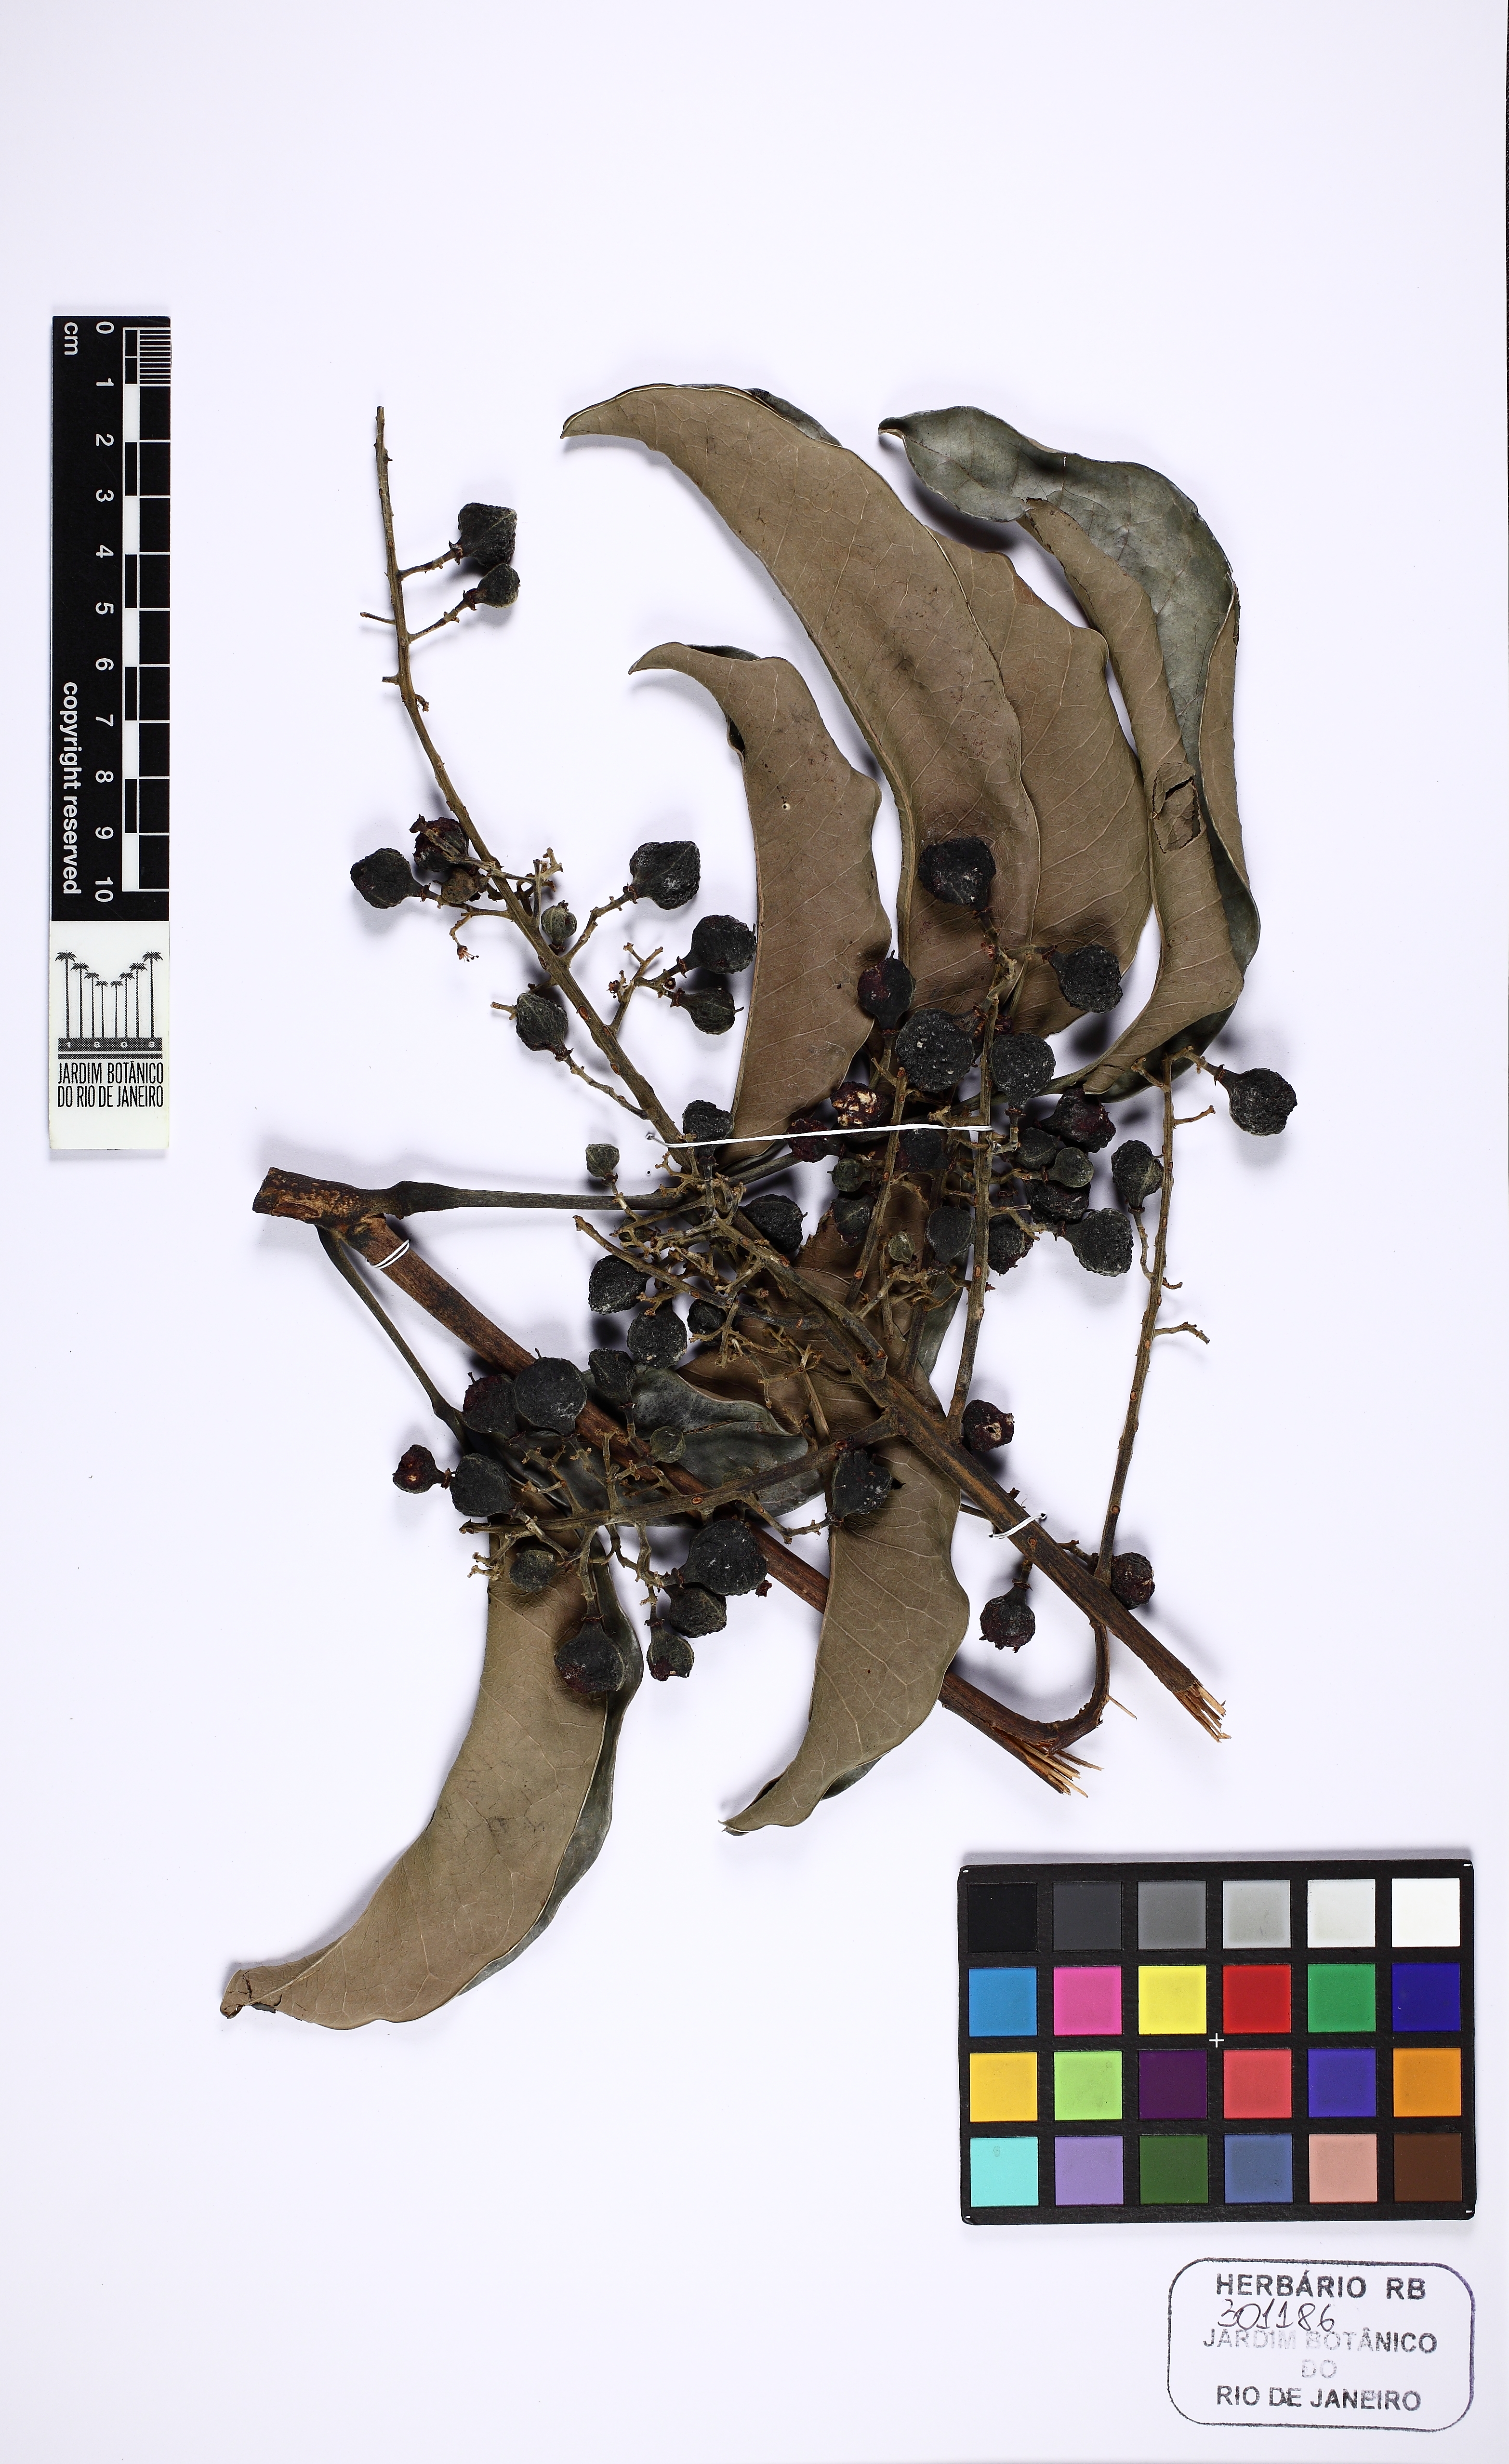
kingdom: Plantae
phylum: Tracheophyta
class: Magnoliopsida
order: Sapindales
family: Sapindaceae
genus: Matayba
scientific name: Matayba livescens
